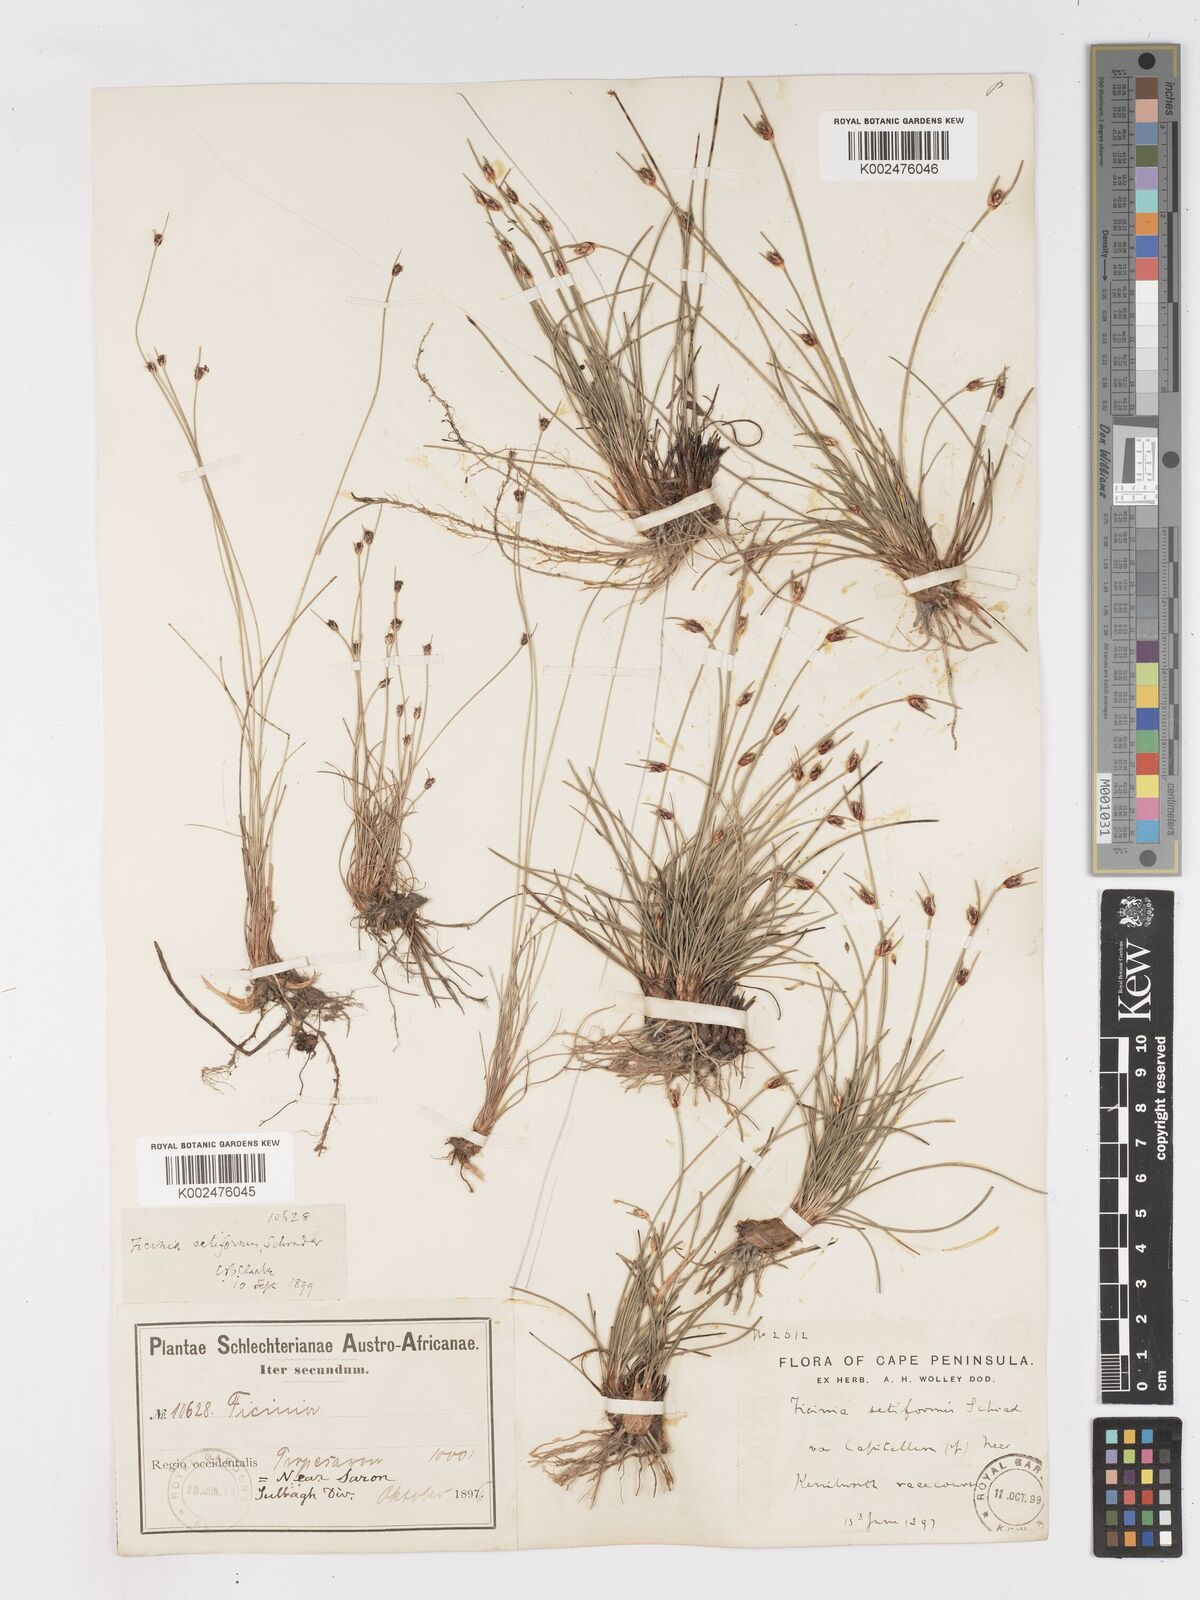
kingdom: Plantae
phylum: Tracheophyta
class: Liliopsida
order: Poales
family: Cyperaceae
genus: Ficinia
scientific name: Ficinia indica
